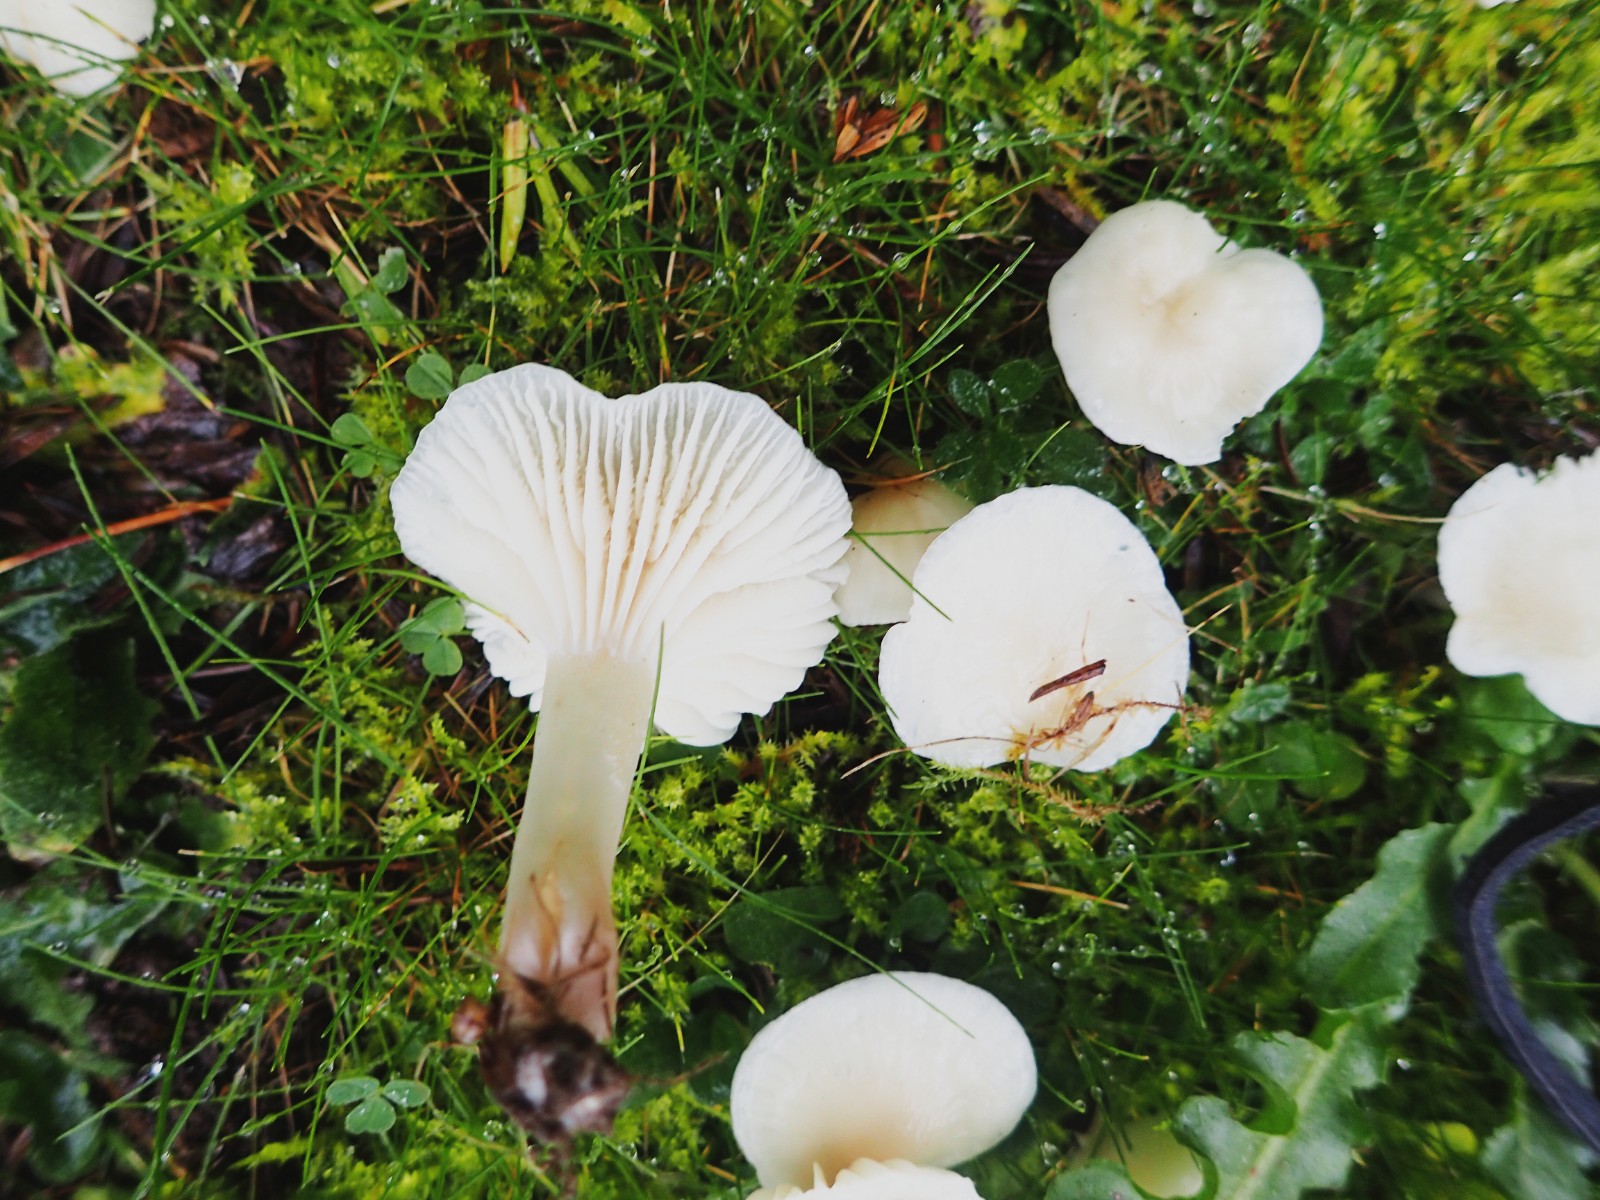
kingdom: Fungi
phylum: Basidiomycota
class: Agaricomycetes
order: Agaricales
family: Hygrophoraceae
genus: Cuphophyllus
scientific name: Cuphophyllus virgineus
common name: snehvid vokshat
